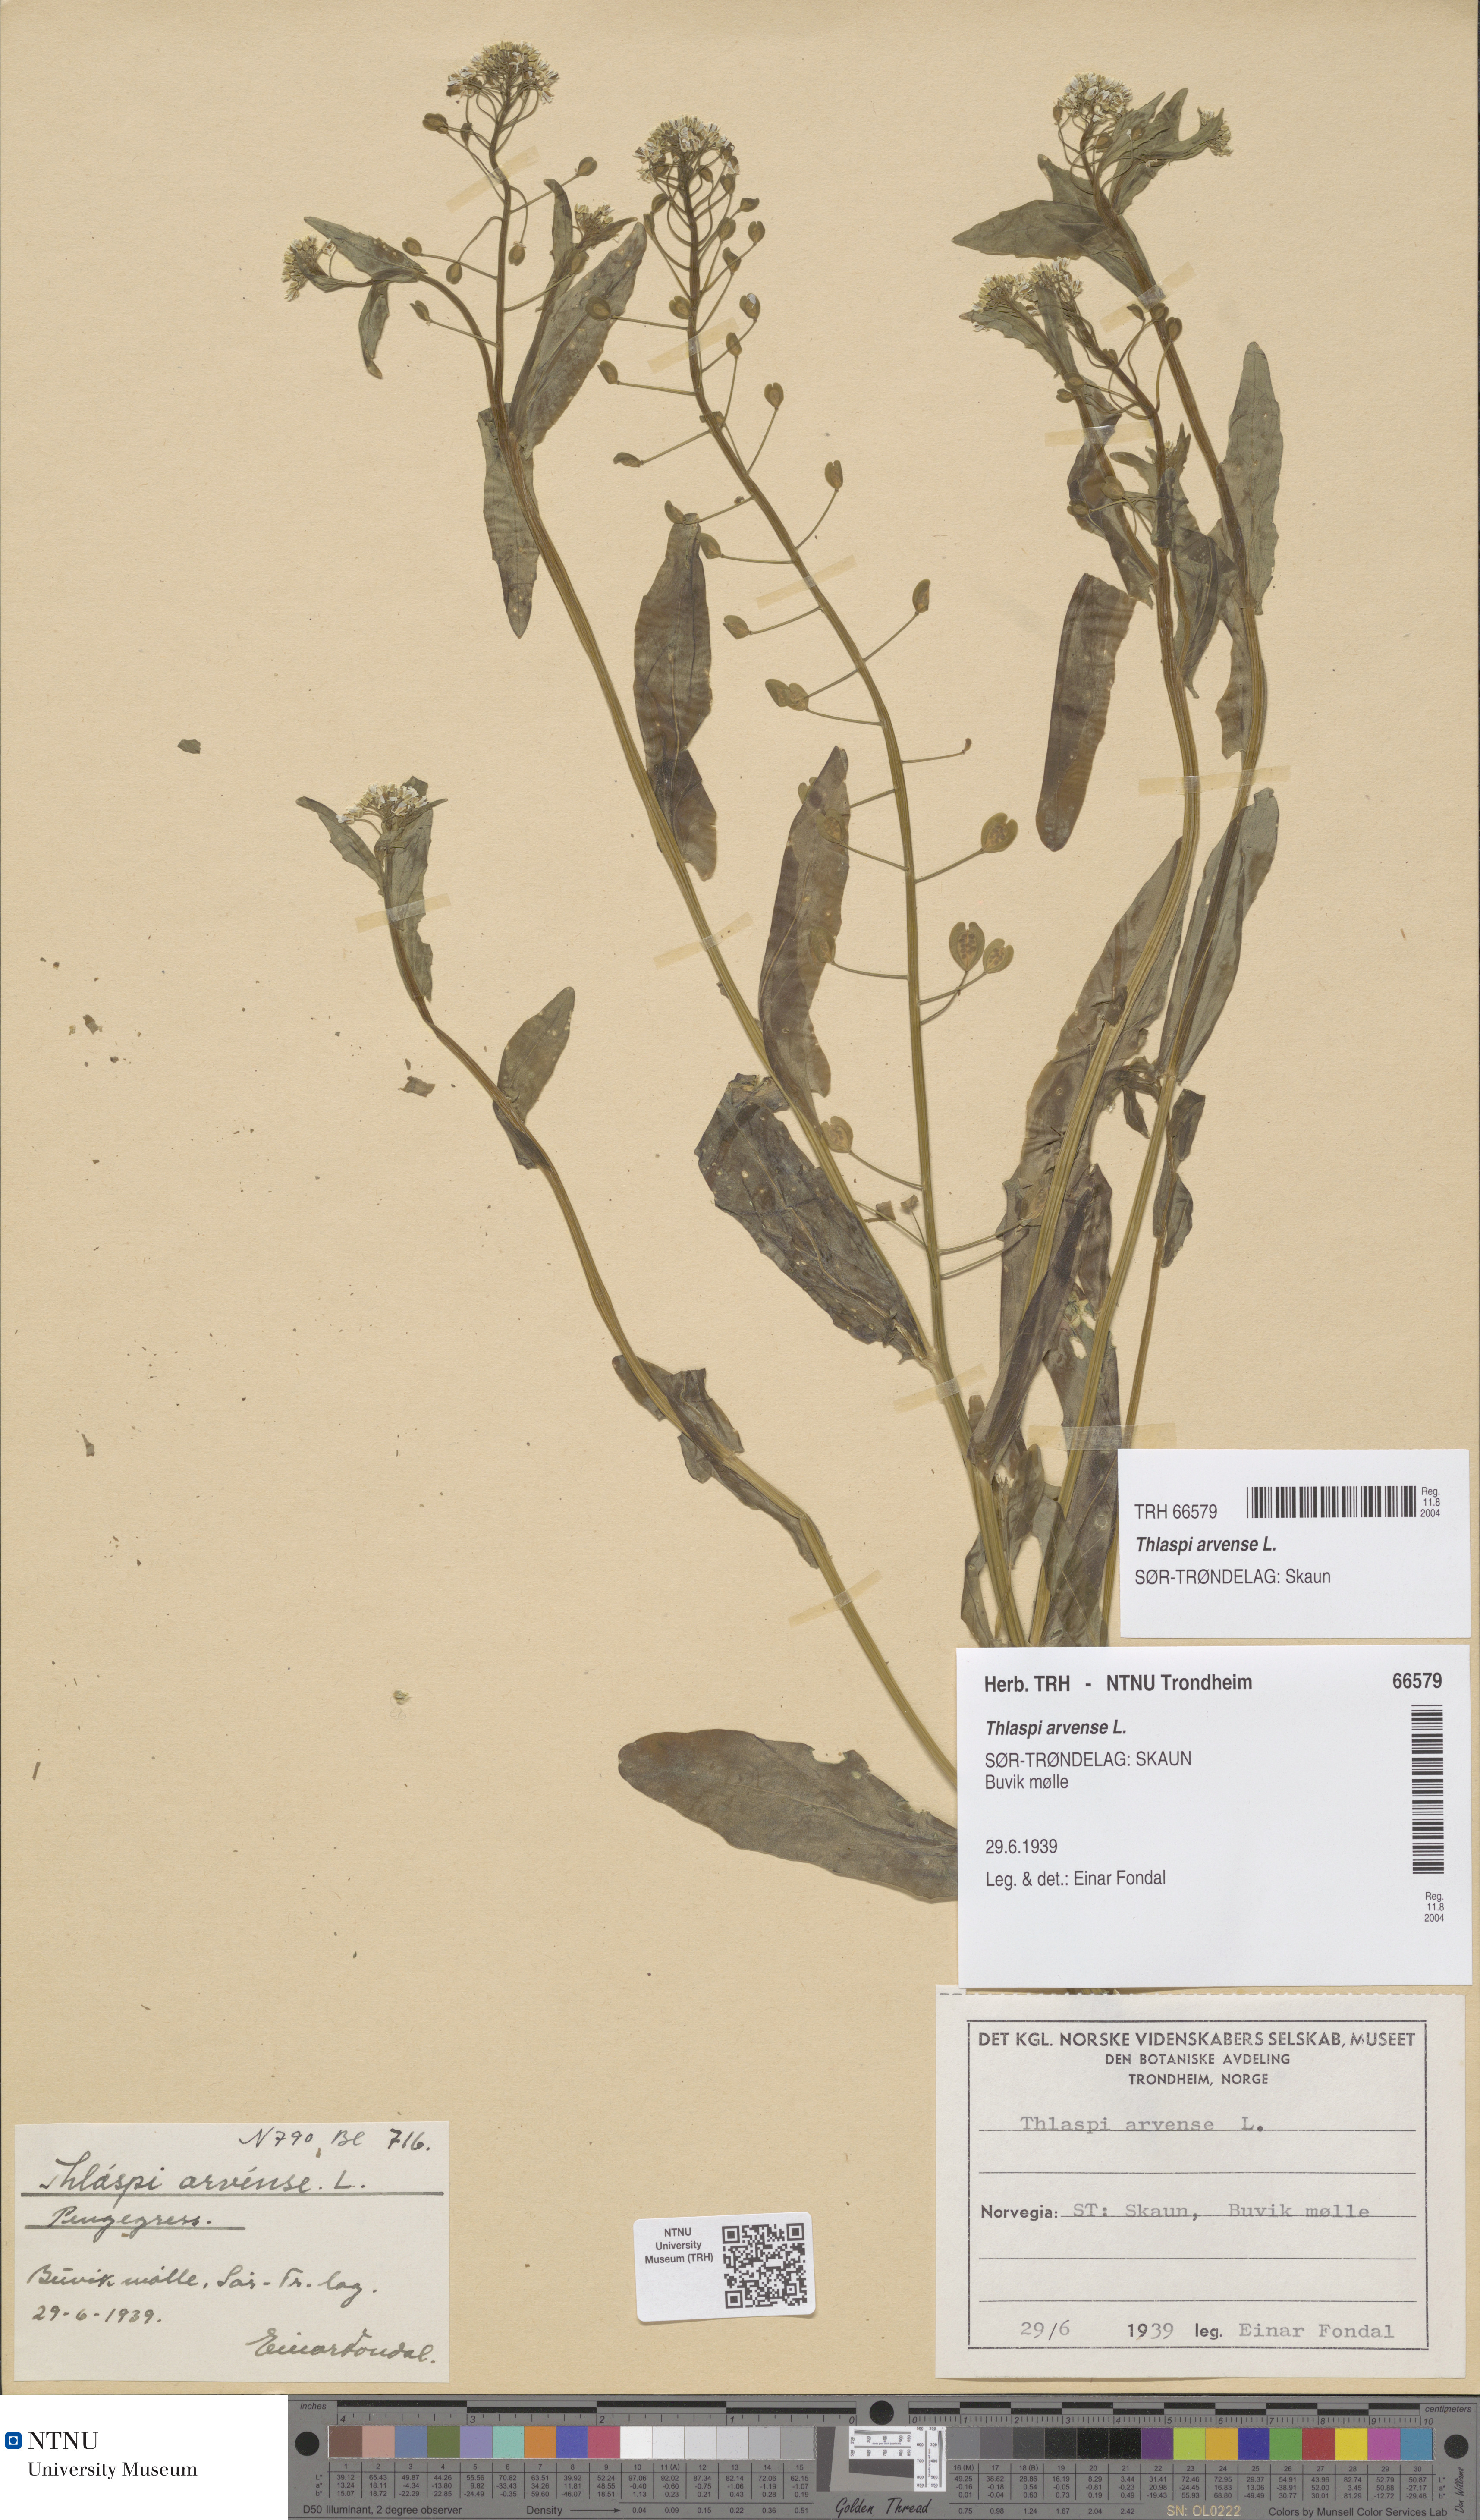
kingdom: Plantae
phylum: Tracheophyta
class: Magnoliopsida
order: Brassicales
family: Brassicaceae
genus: Thlaspi
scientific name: Thlaspi arvense
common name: Field pennycress
